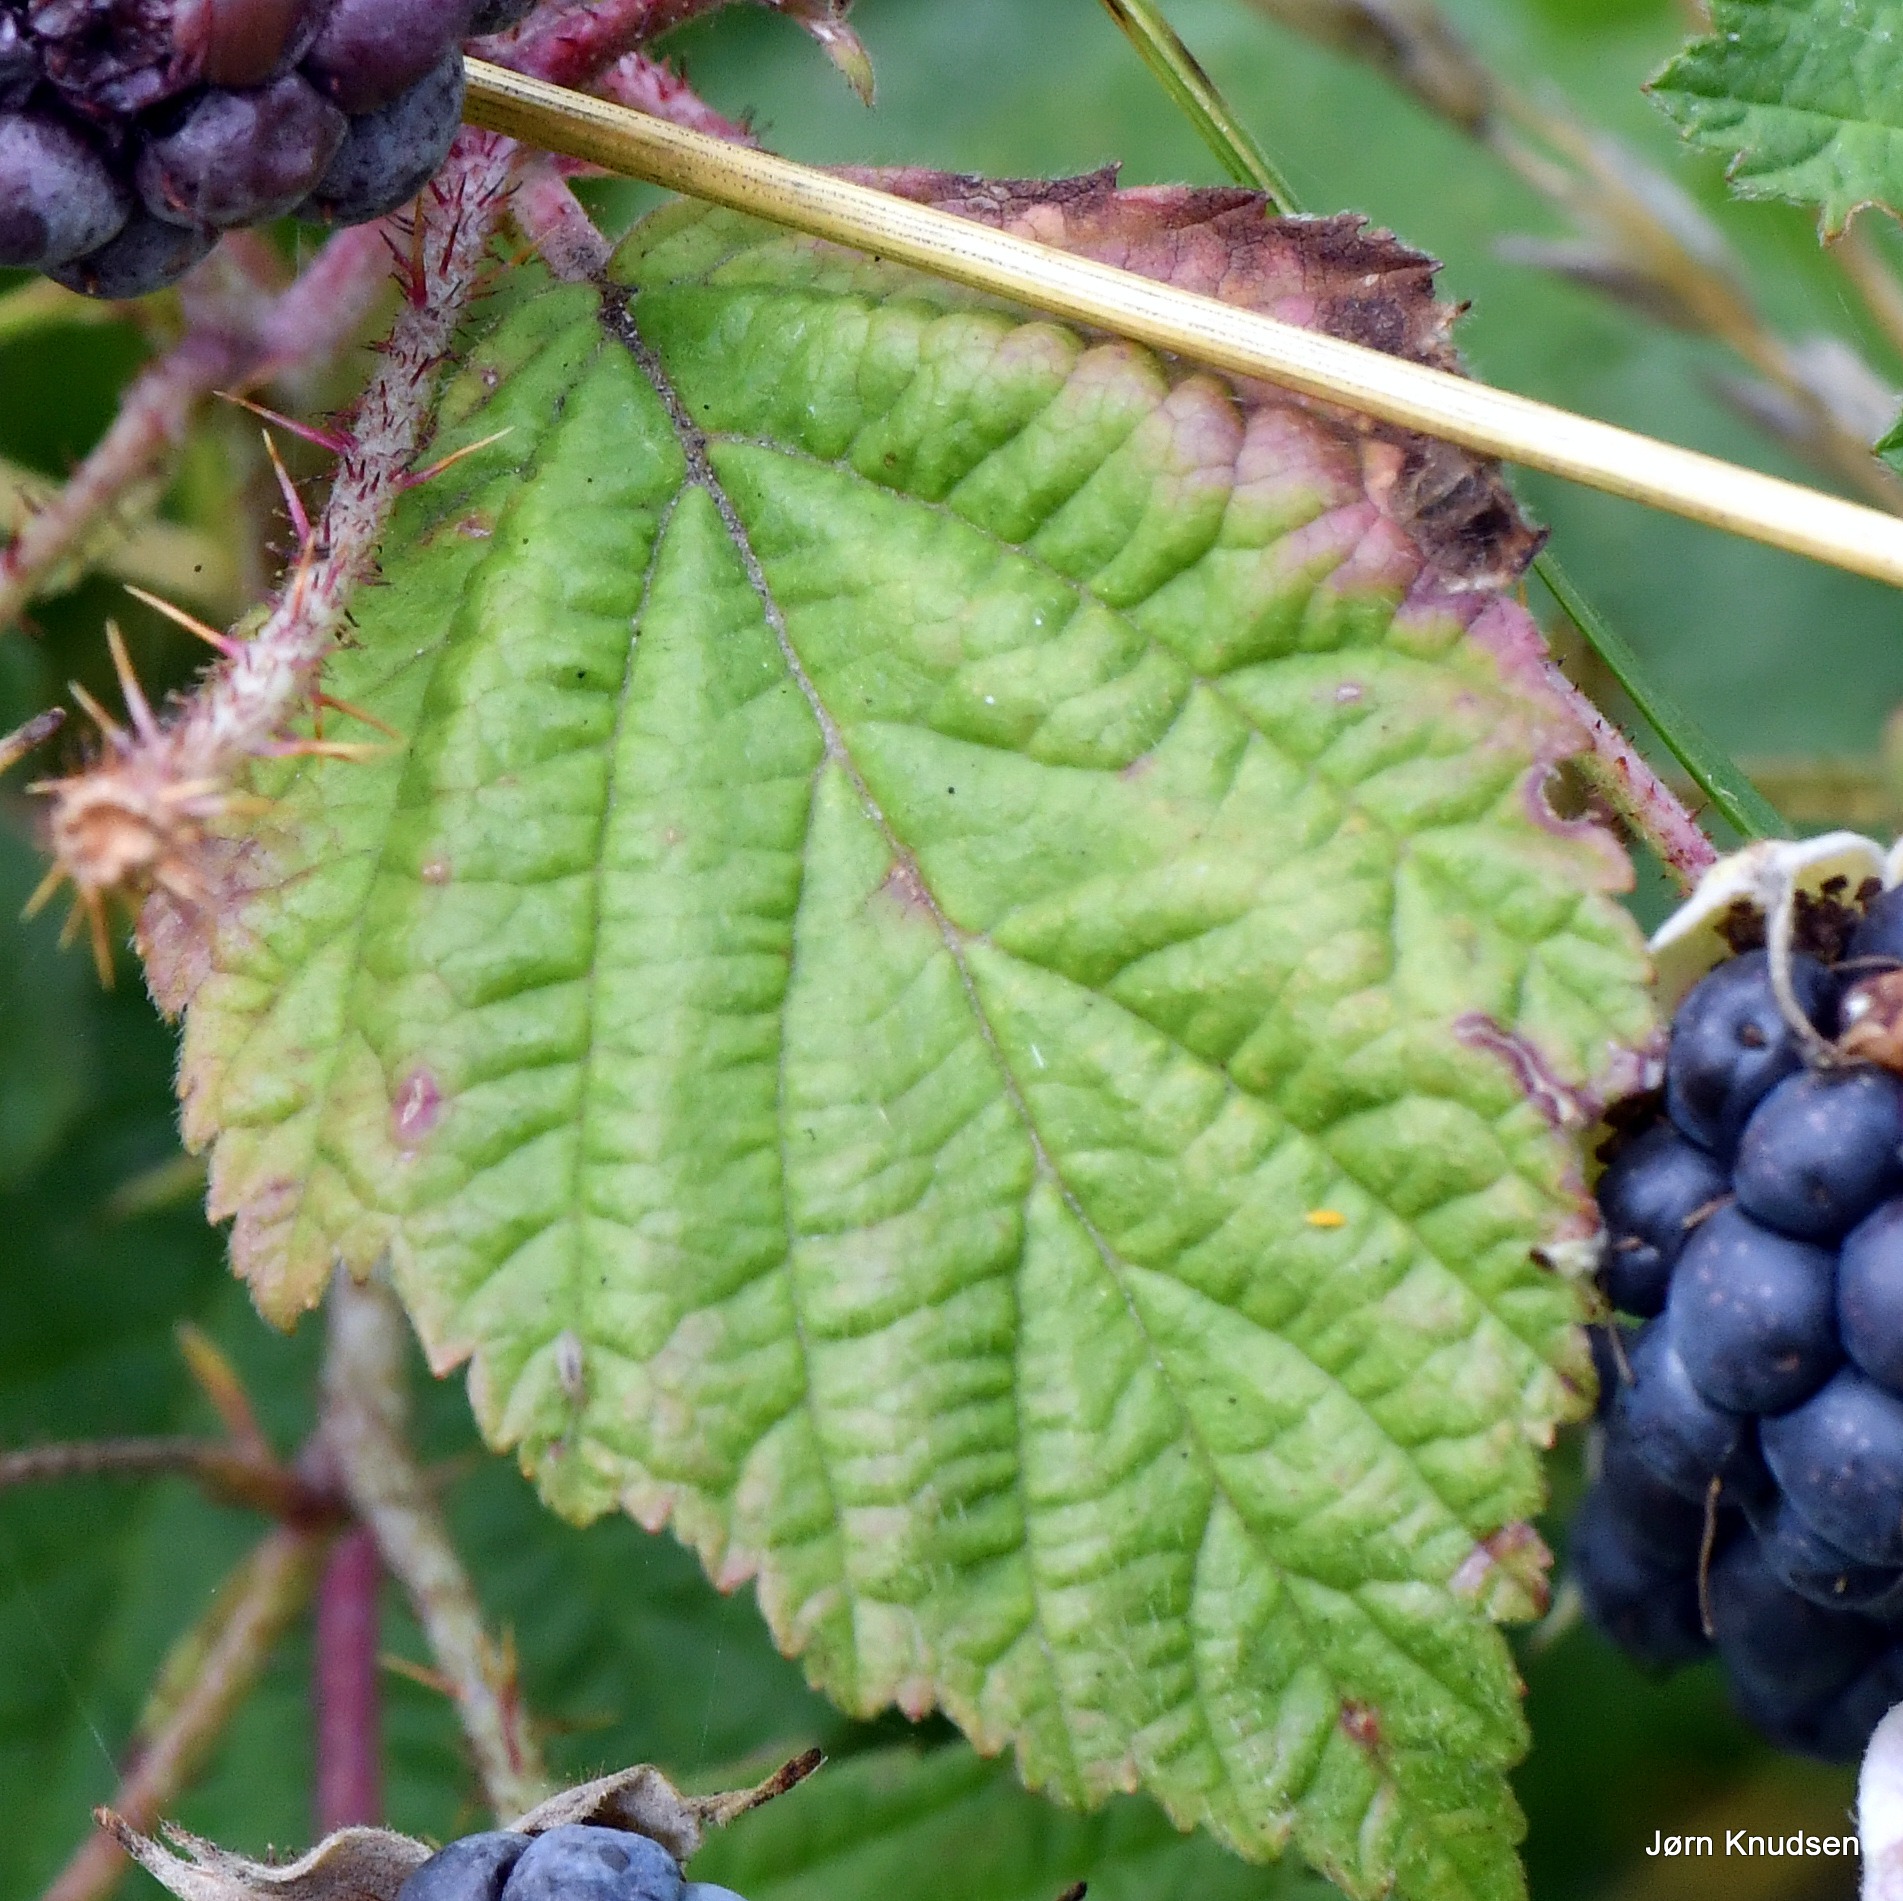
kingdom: Plantae
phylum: Tracheophyta
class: Magnoliopsida
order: Rosales
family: Rosaceae
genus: Rubus
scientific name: Rubus caesius
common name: Korbær
